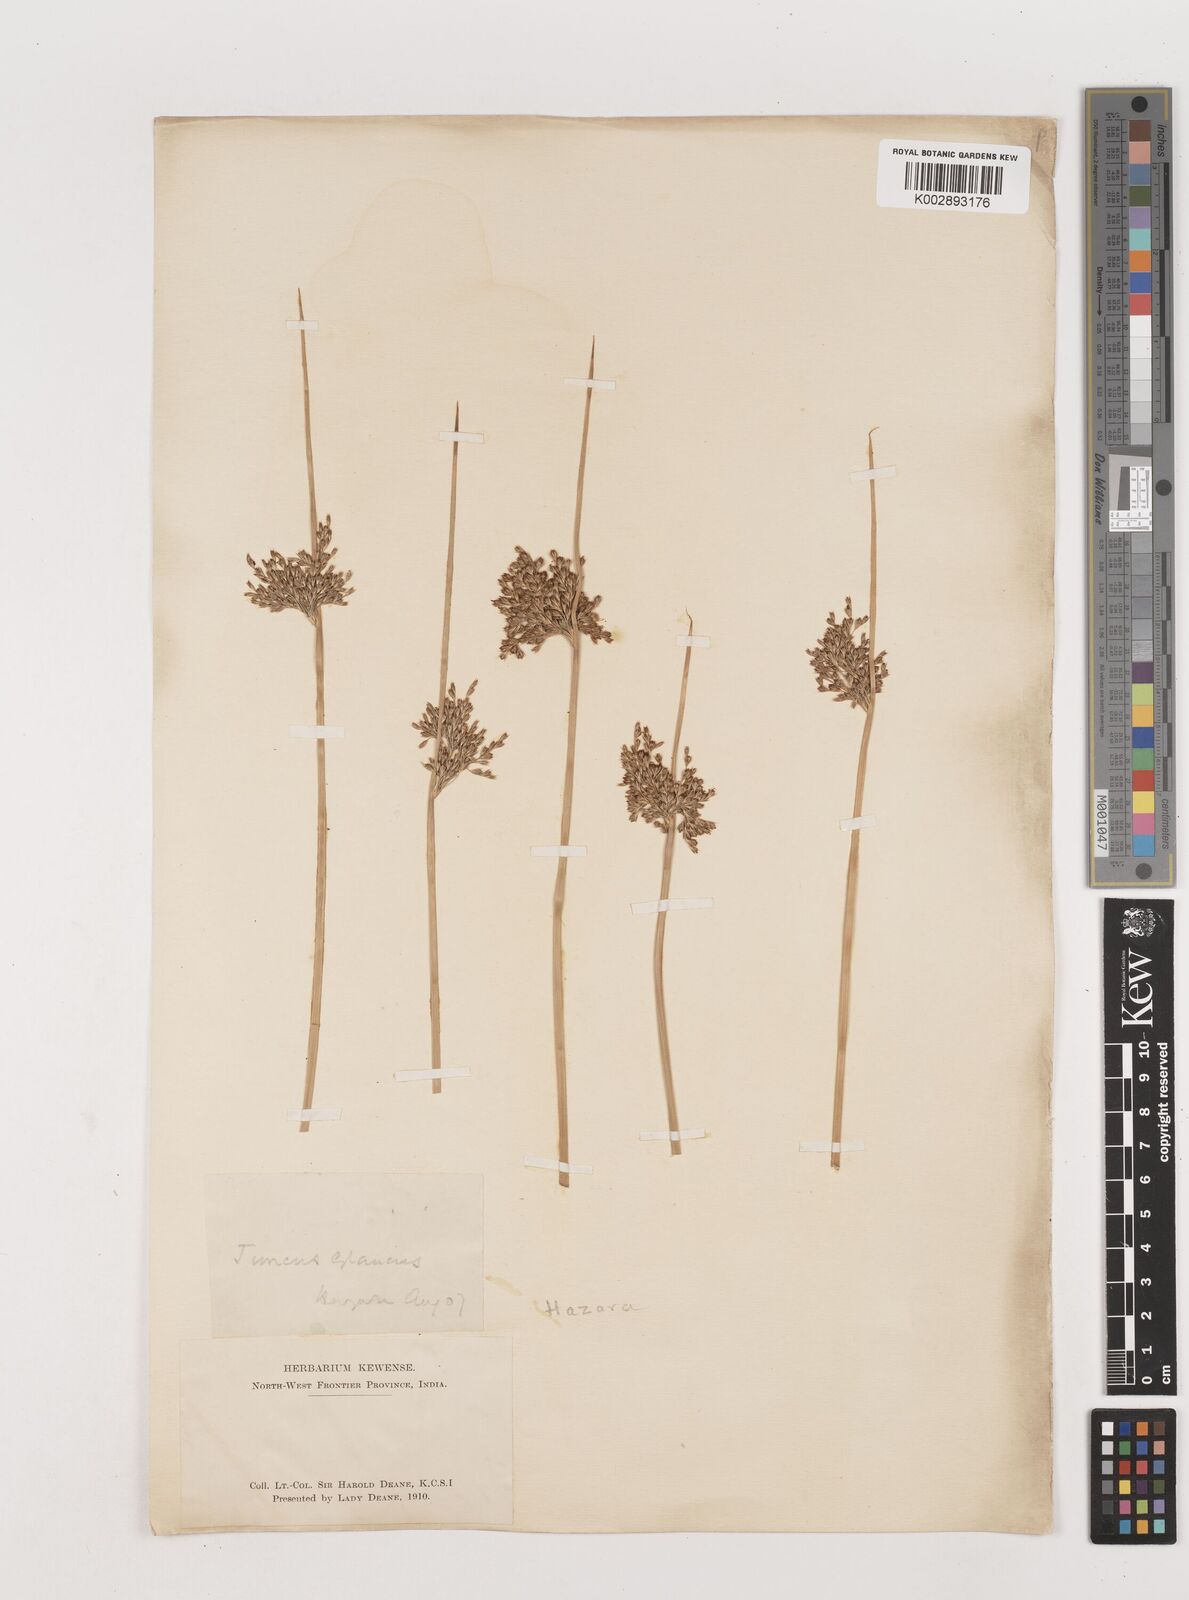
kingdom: Plantae
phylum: Tracheophyta
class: Liliopsida
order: Poales
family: Juncaceae
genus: Juncus
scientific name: Juncus inflexus
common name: Hard rush
